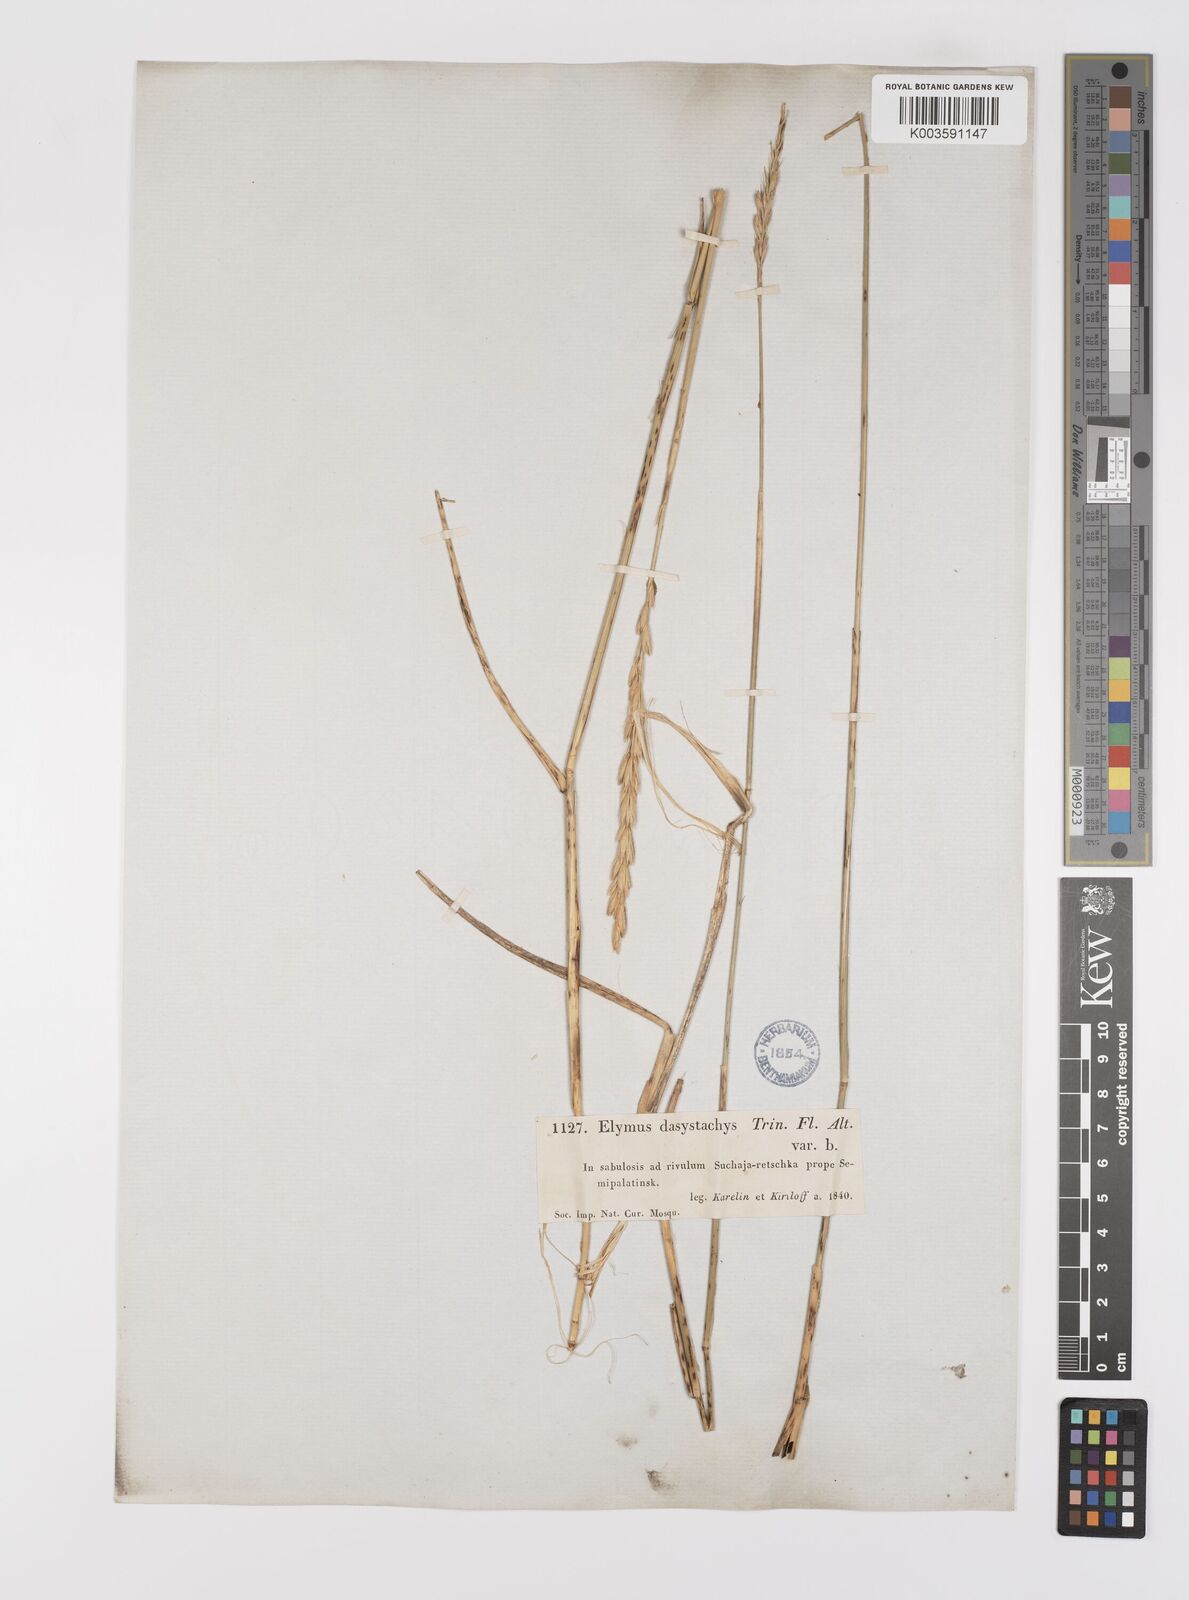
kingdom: Plantae
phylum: Tracheophyta
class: Liliopsida
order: Poales
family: Poaceae
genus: Leymus
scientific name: Leymus secalinus
